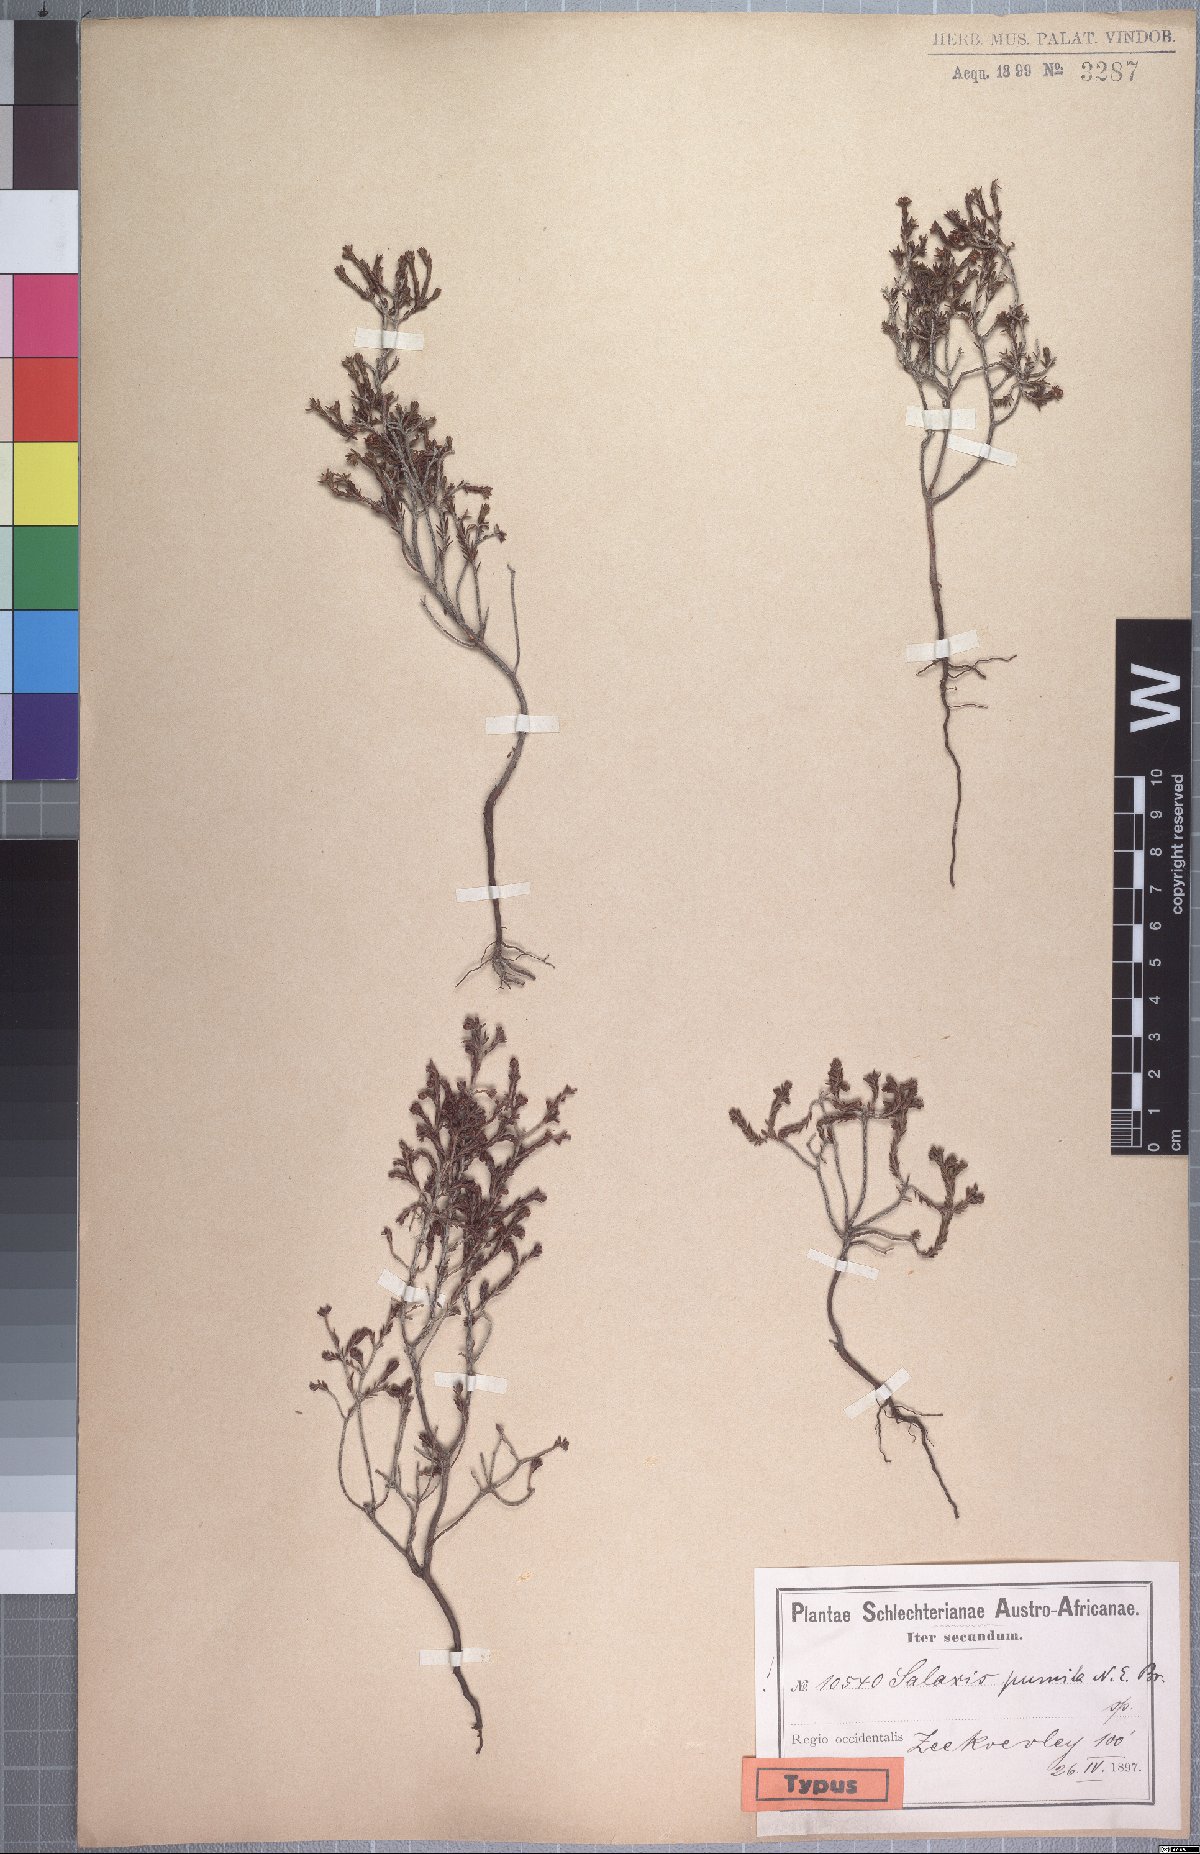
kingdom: Plantae
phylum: Tracheophyta
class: Magnoliopsida
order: Ericales
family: Ericaceae
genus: Erica
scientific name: Erica bredasiana
